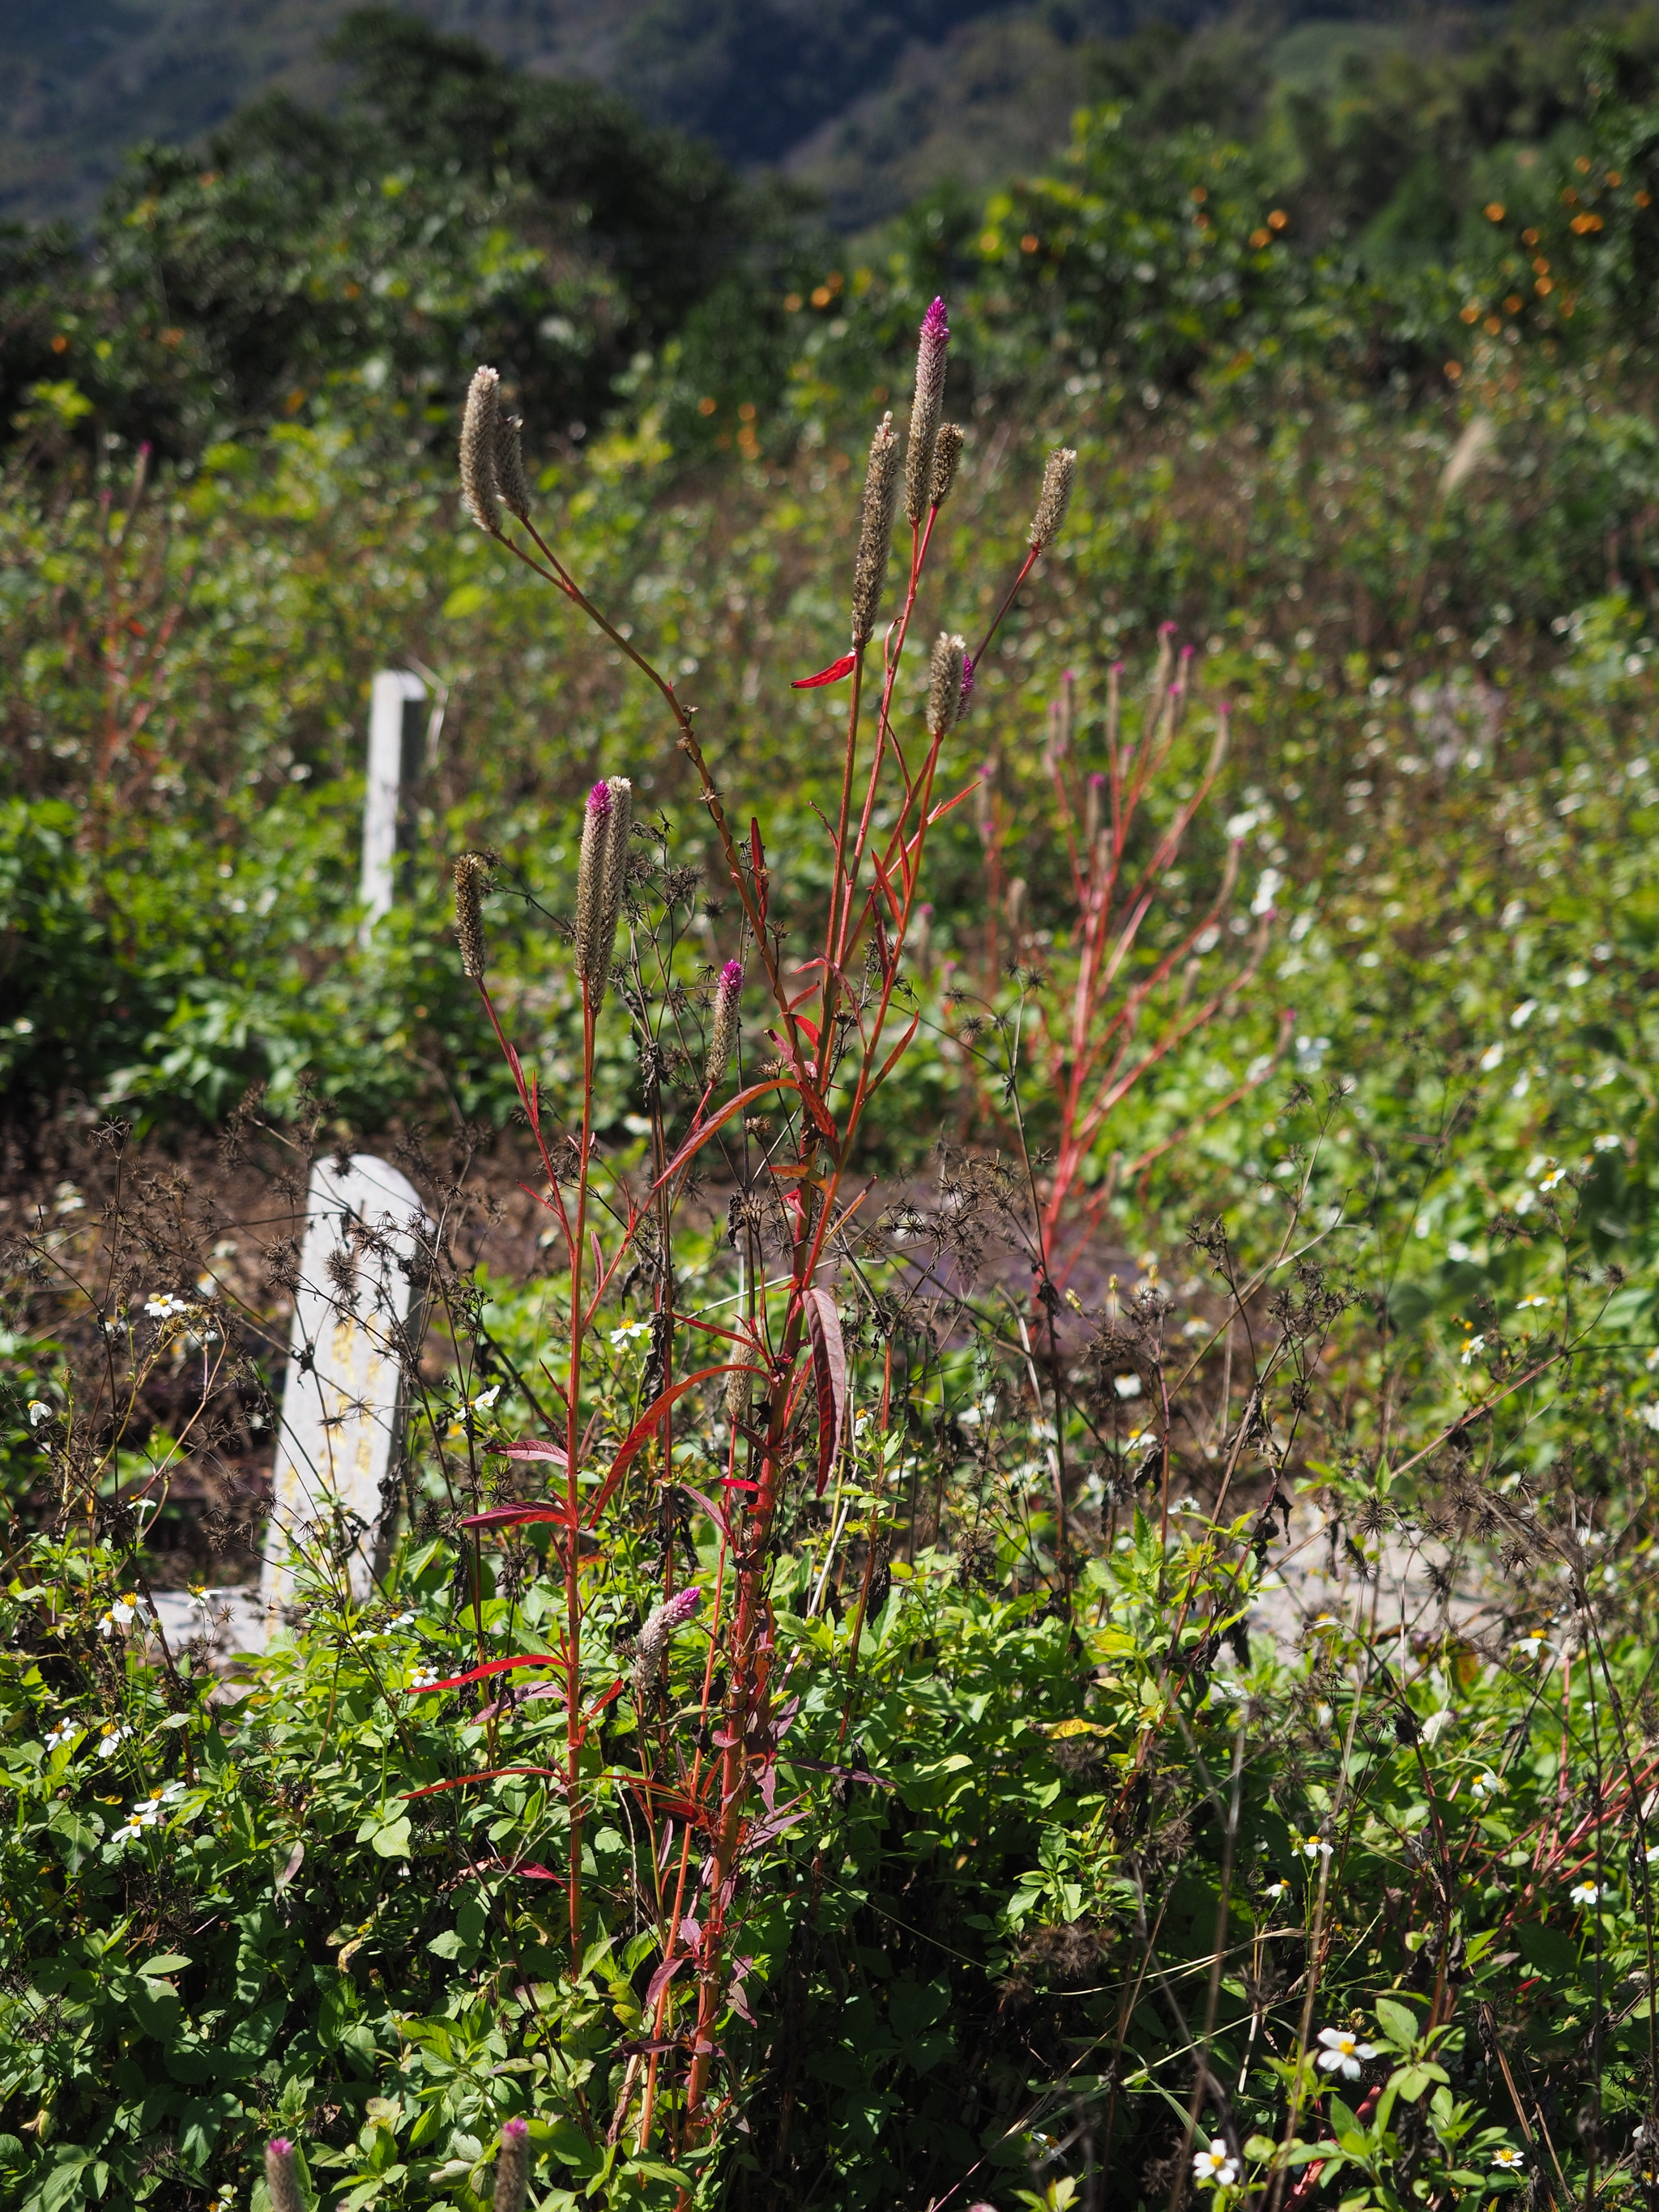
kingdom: Plantae
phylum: Tracheophyta
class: Magnoliopsida
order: Caryophyllales
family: Amaranthaceae
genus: Celosia
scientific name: Celosia argentea
